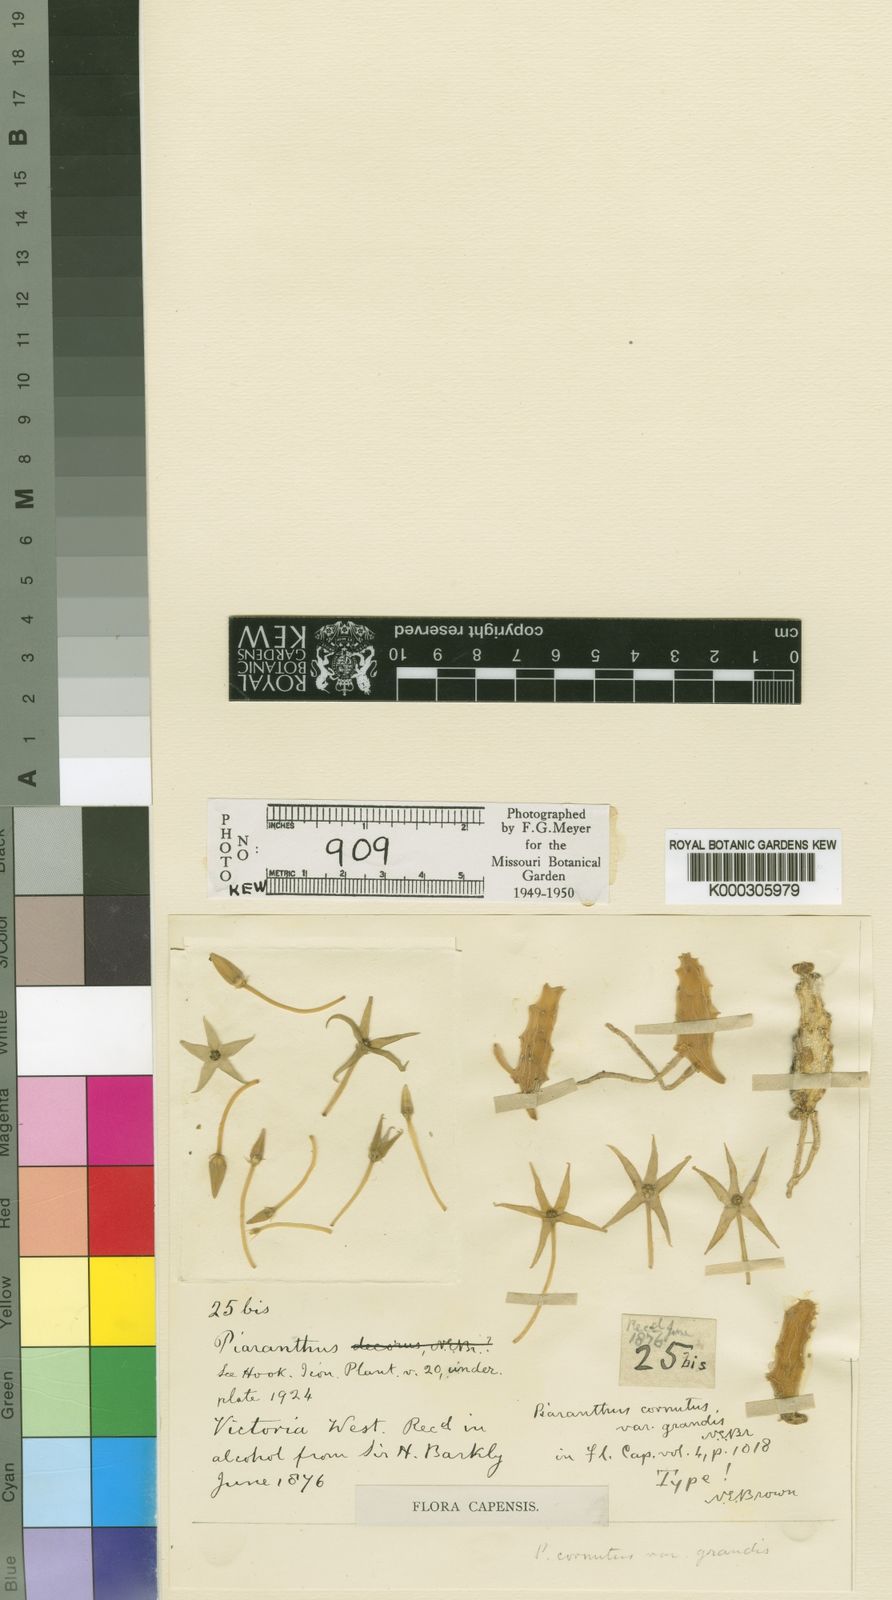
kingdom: Plantae
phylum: Tracheophyta
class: Magnoliopsida
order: Gentianales
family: Apocynaceae
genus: Ceropegia
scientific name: Ceropegia cornuta
